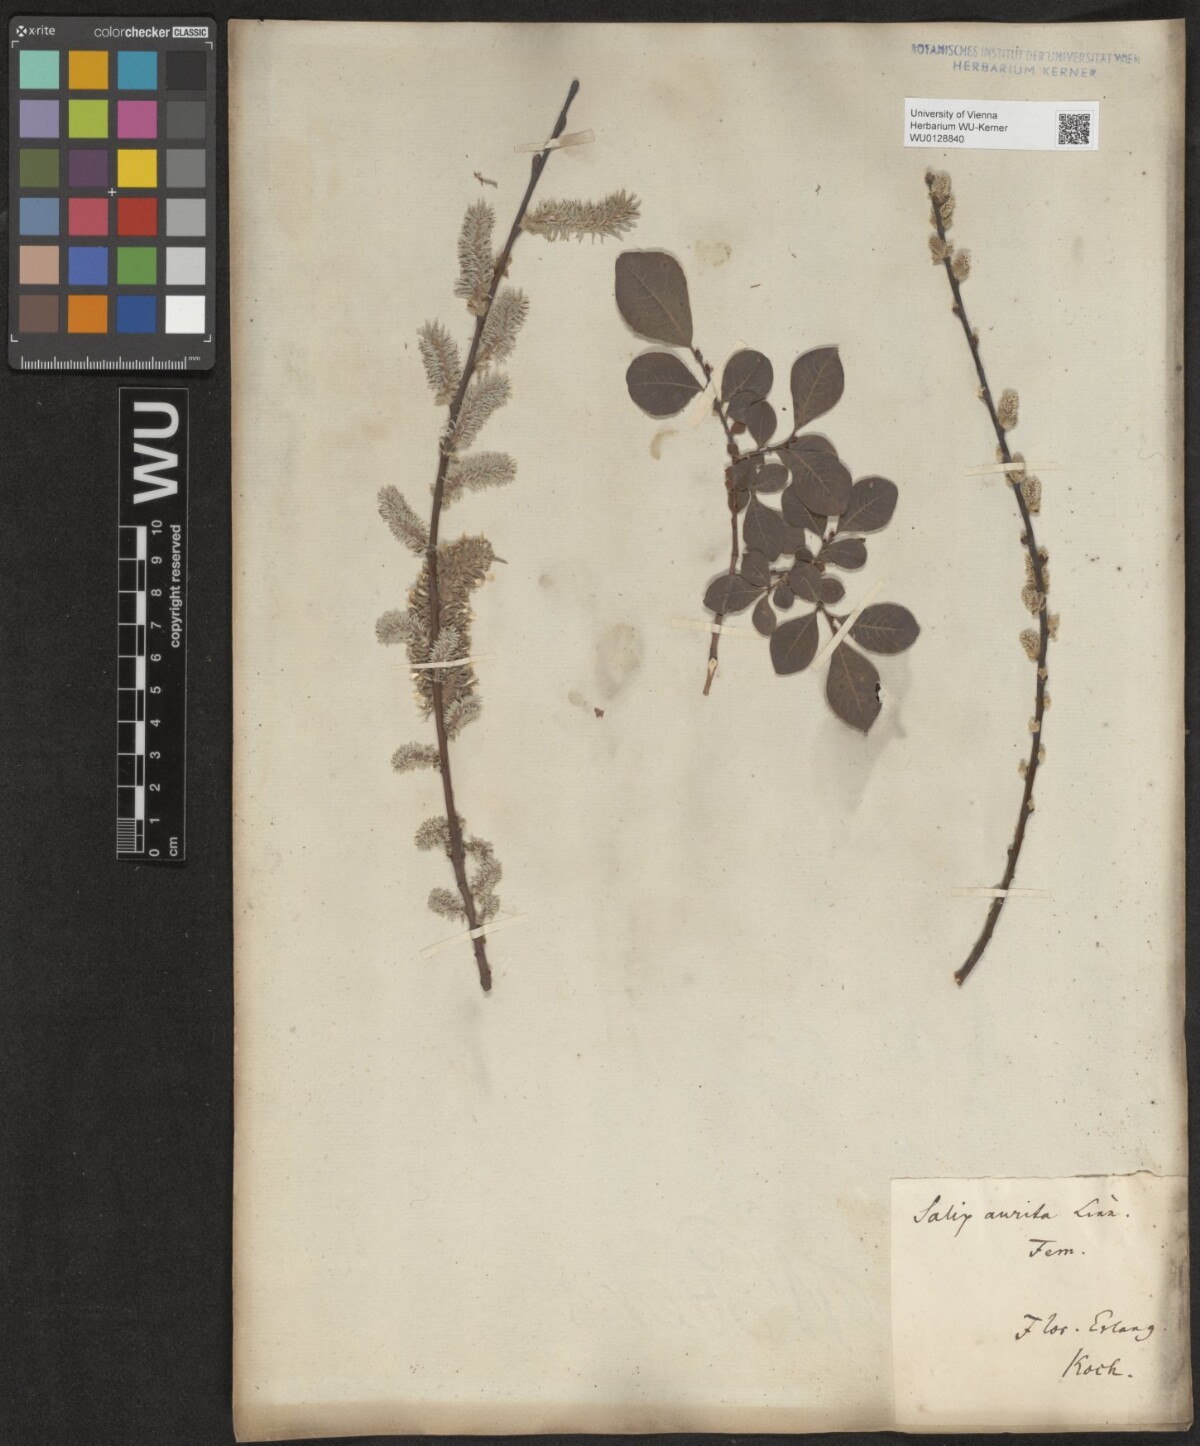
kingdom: Plantae
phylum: Tracheophyta
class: Magnoliopsida
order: Malpighiales
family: Salicaceae
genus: Salix
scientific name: Salix aurita
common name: Eared willow
